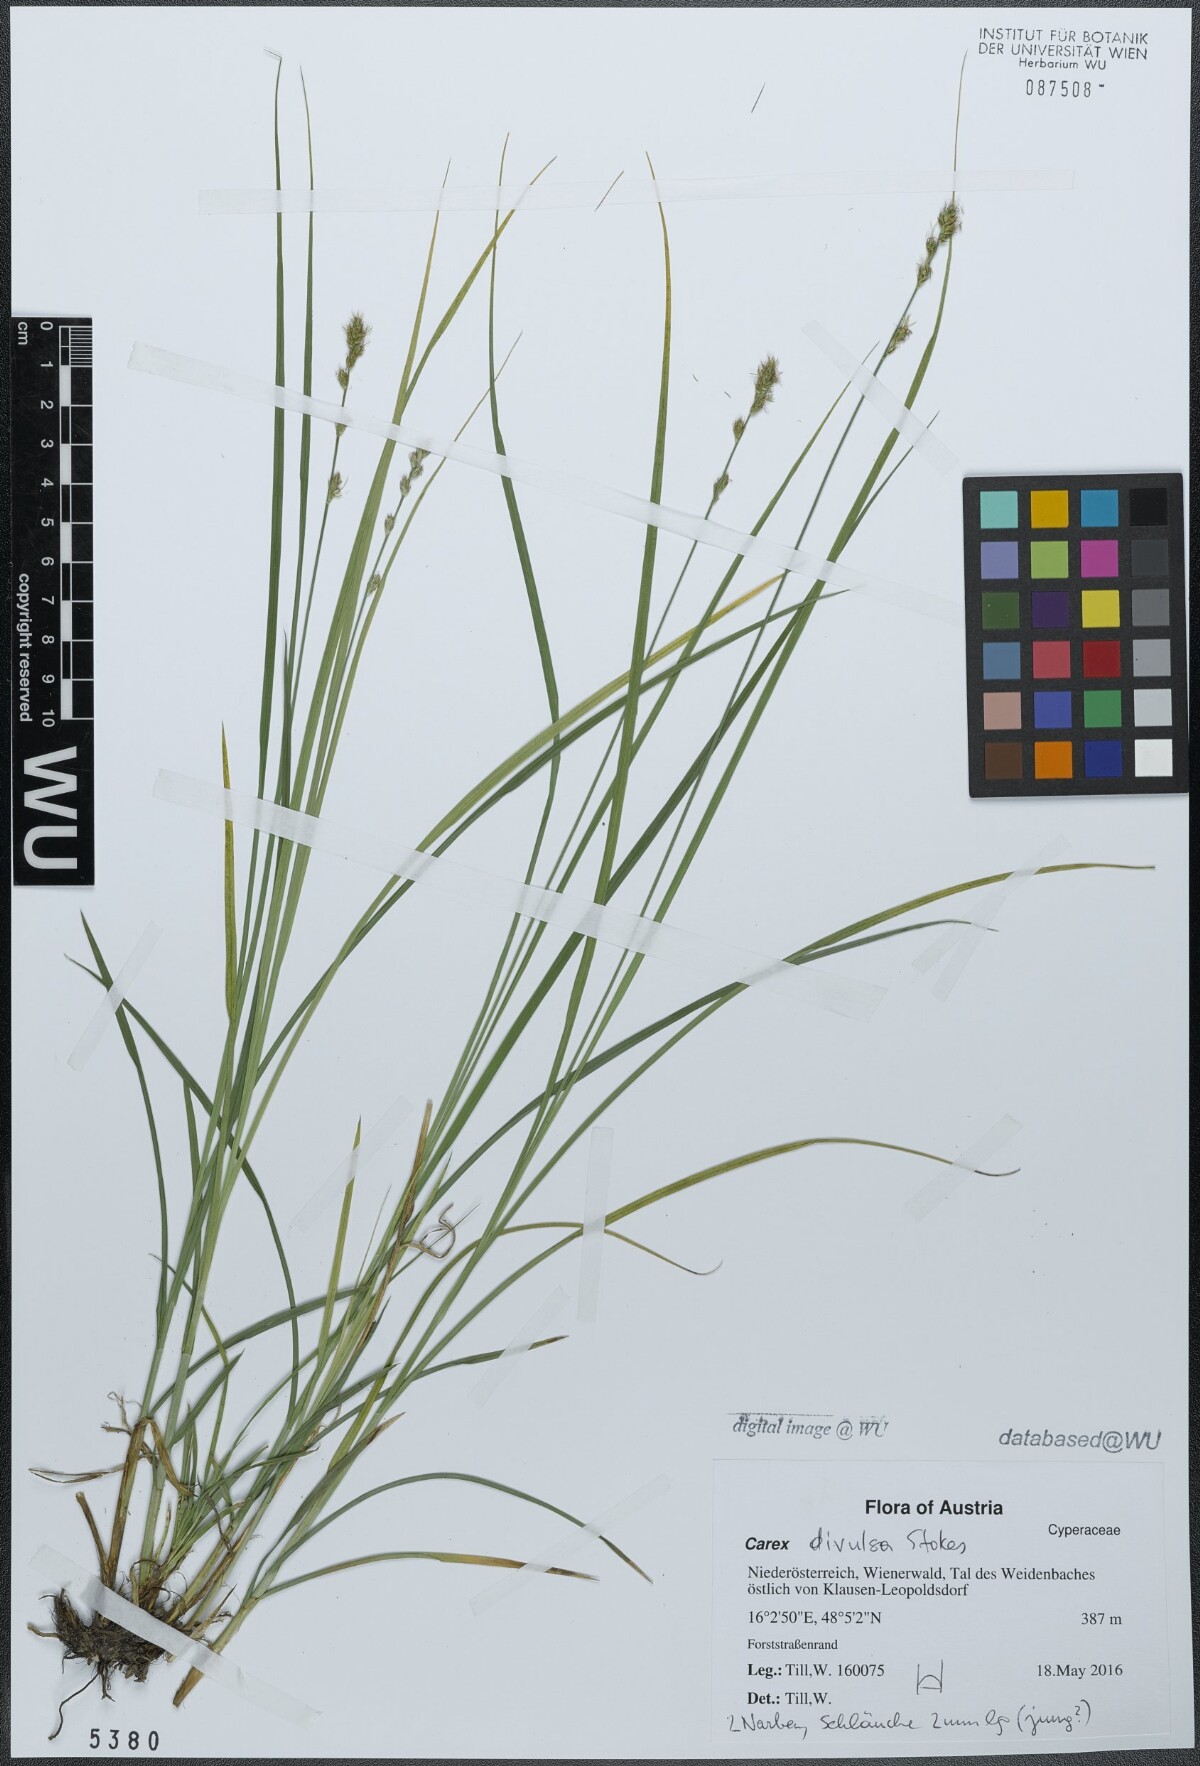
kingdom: Plantae
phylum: Tracheophyta
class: Liliopsida
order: Poales
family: Cyperaceae
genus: Carex
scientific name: Carex divulsa
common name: Grassland sedge
